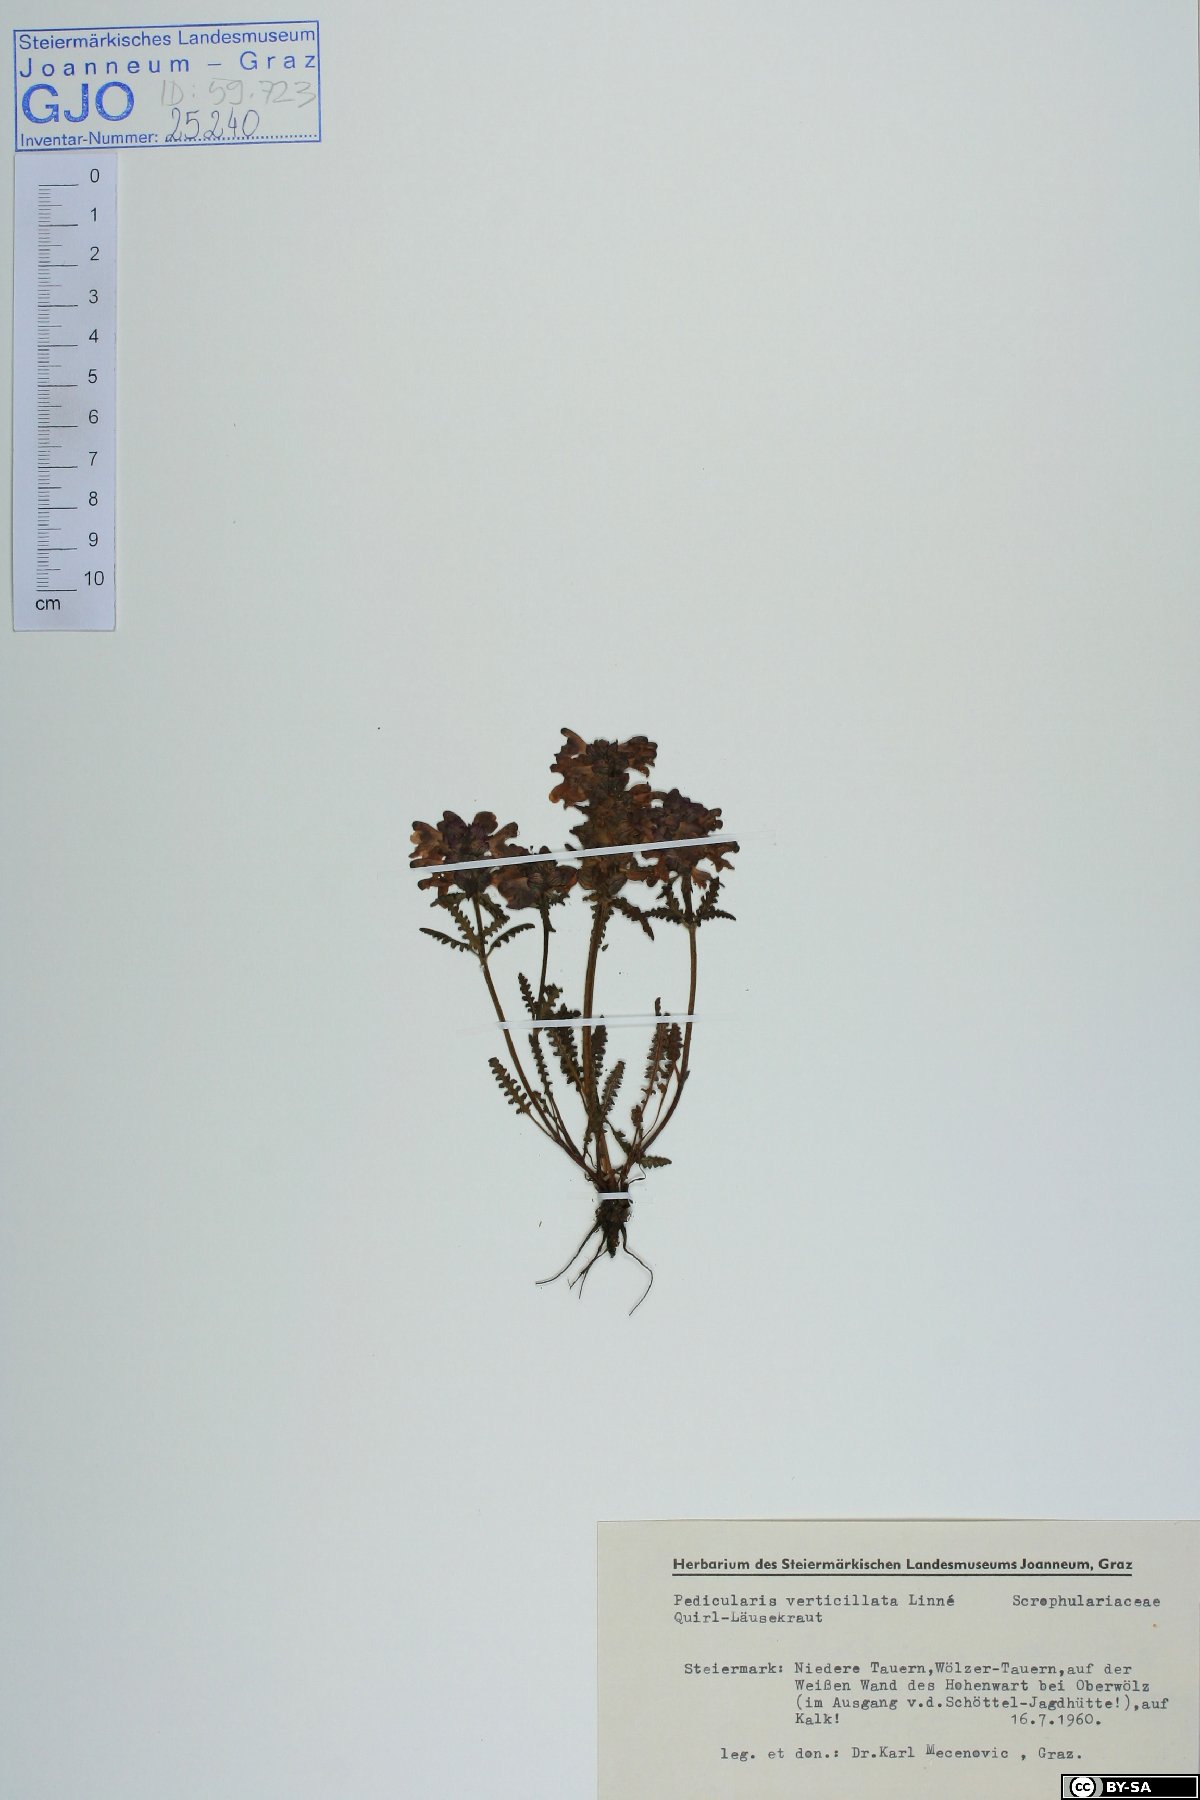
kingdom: Plantae
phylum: Tracheophyta
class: Magnoliopsida
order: Lamiales
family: Orobanchaceae
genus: Pedicularis
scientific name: Pedicularis verticillata
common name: Whorled lousewort
